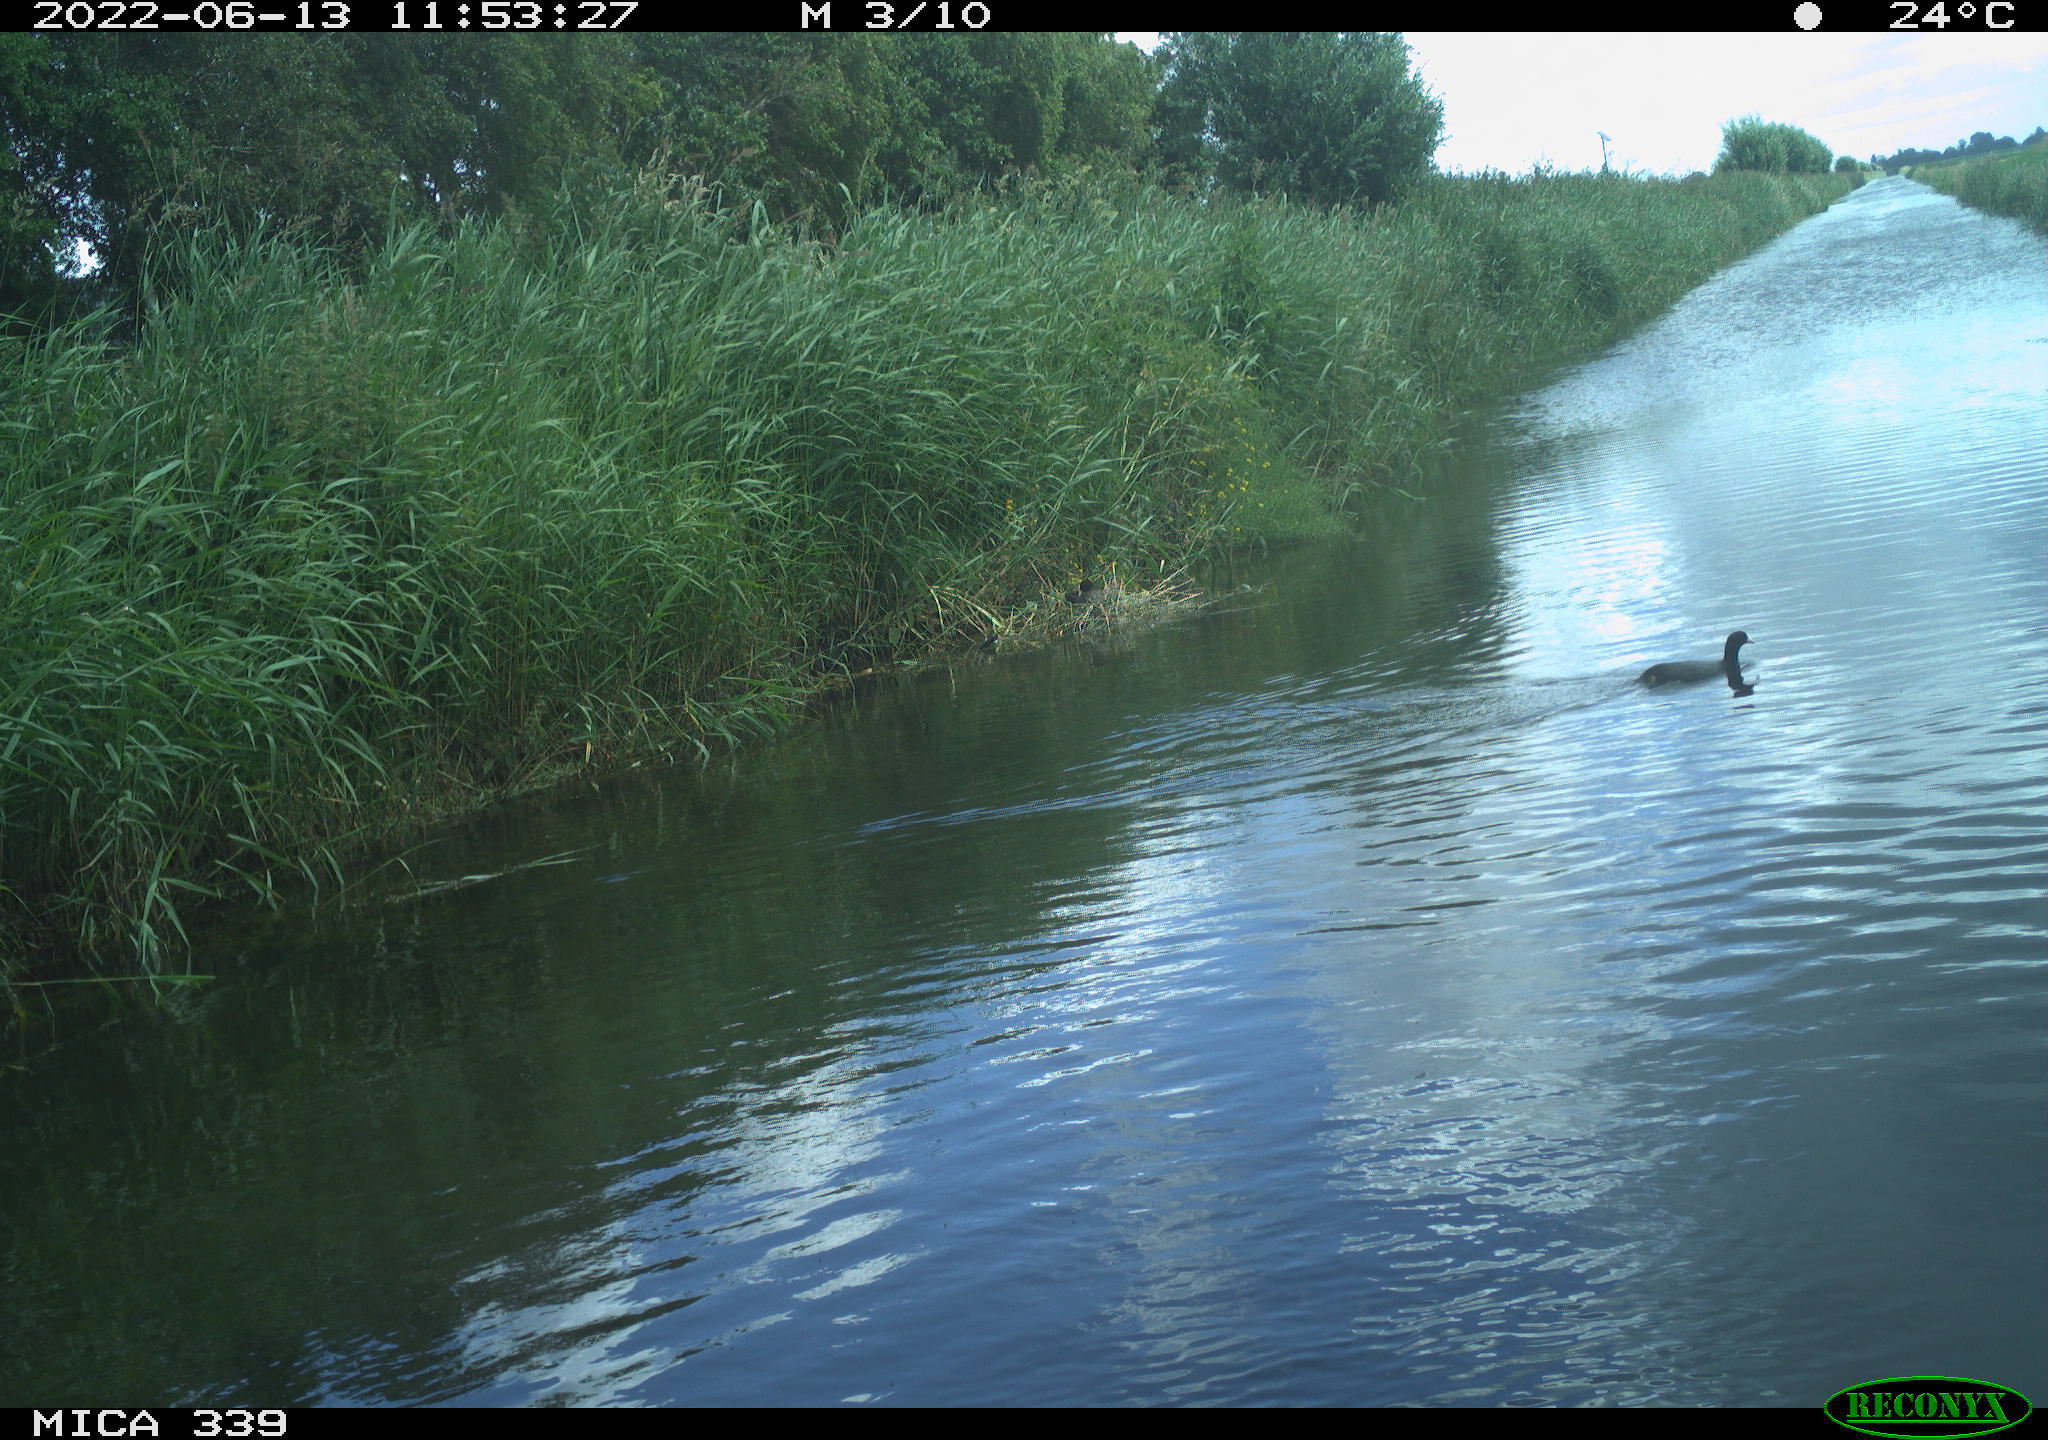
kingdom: Animalia
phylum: Chordata
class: Aves
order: Gruiformes
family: Rallidae
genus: Fulica
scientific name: Fulica atra
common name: Eurasian coot
